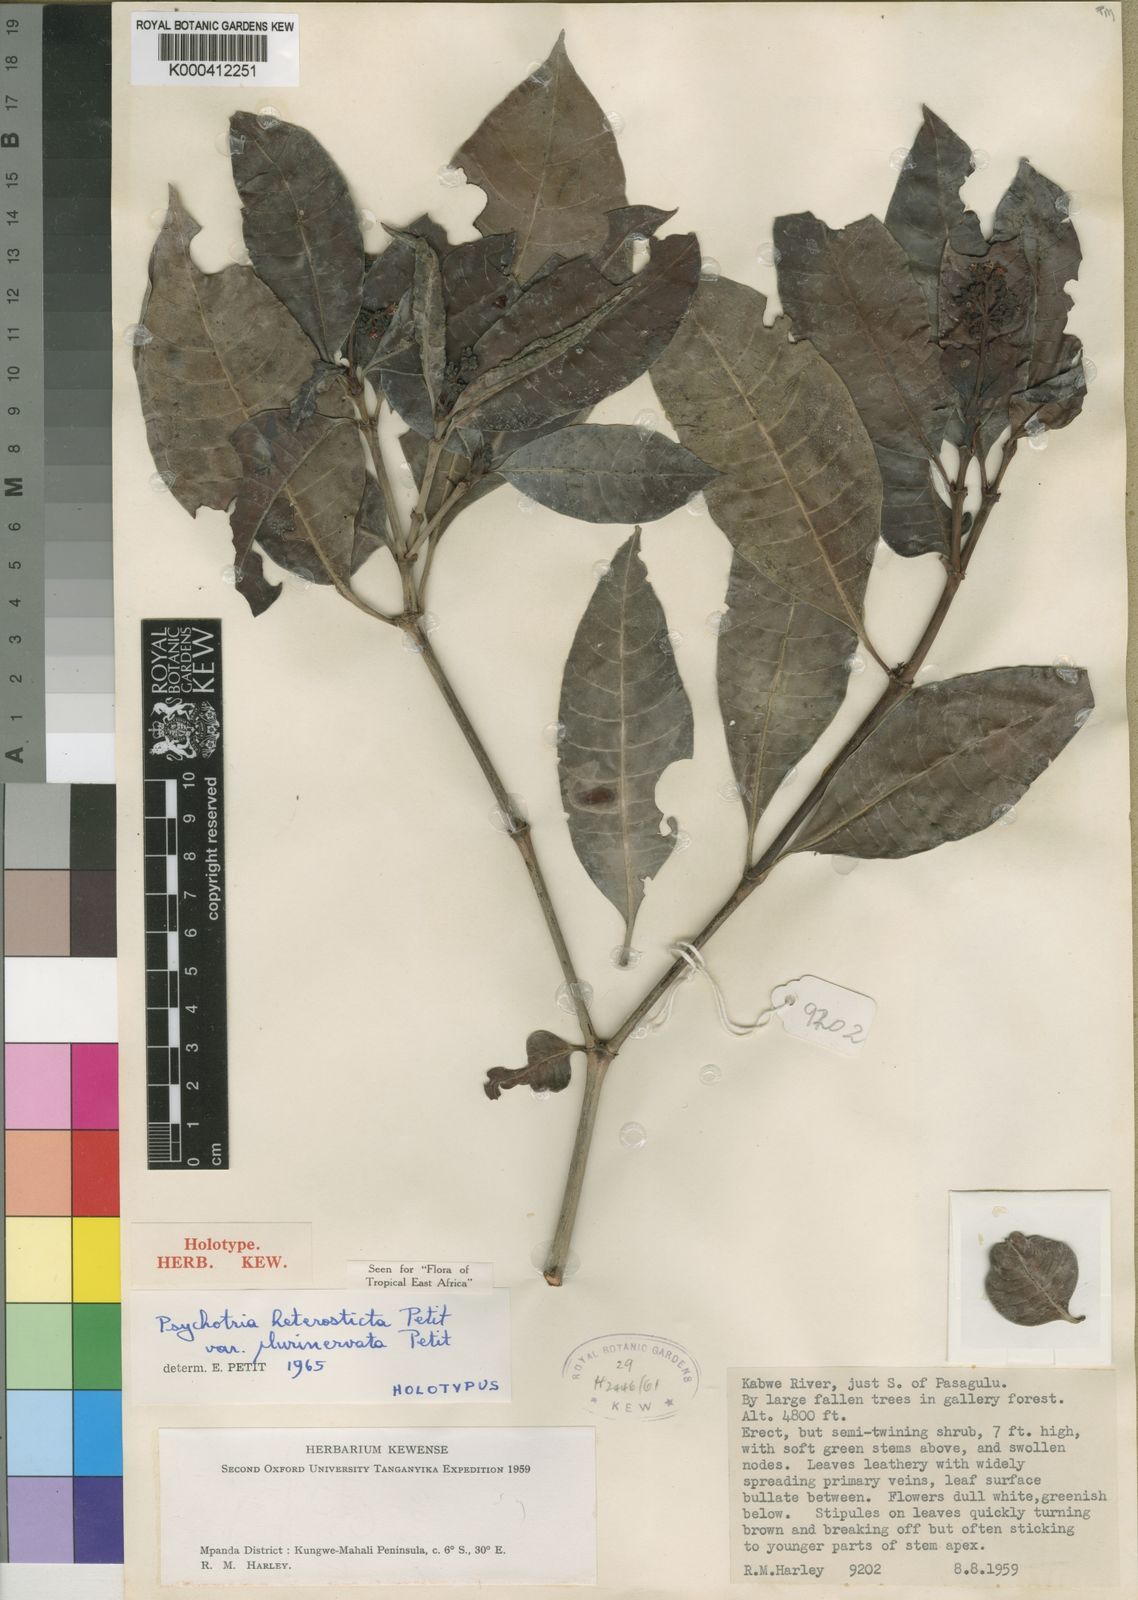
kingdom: Plantae
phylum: Tracheophyta
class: Magnoliopsida
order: Gentianales
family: Rubiaceae
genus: Psychotria
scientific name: Psychotria heterosticta
